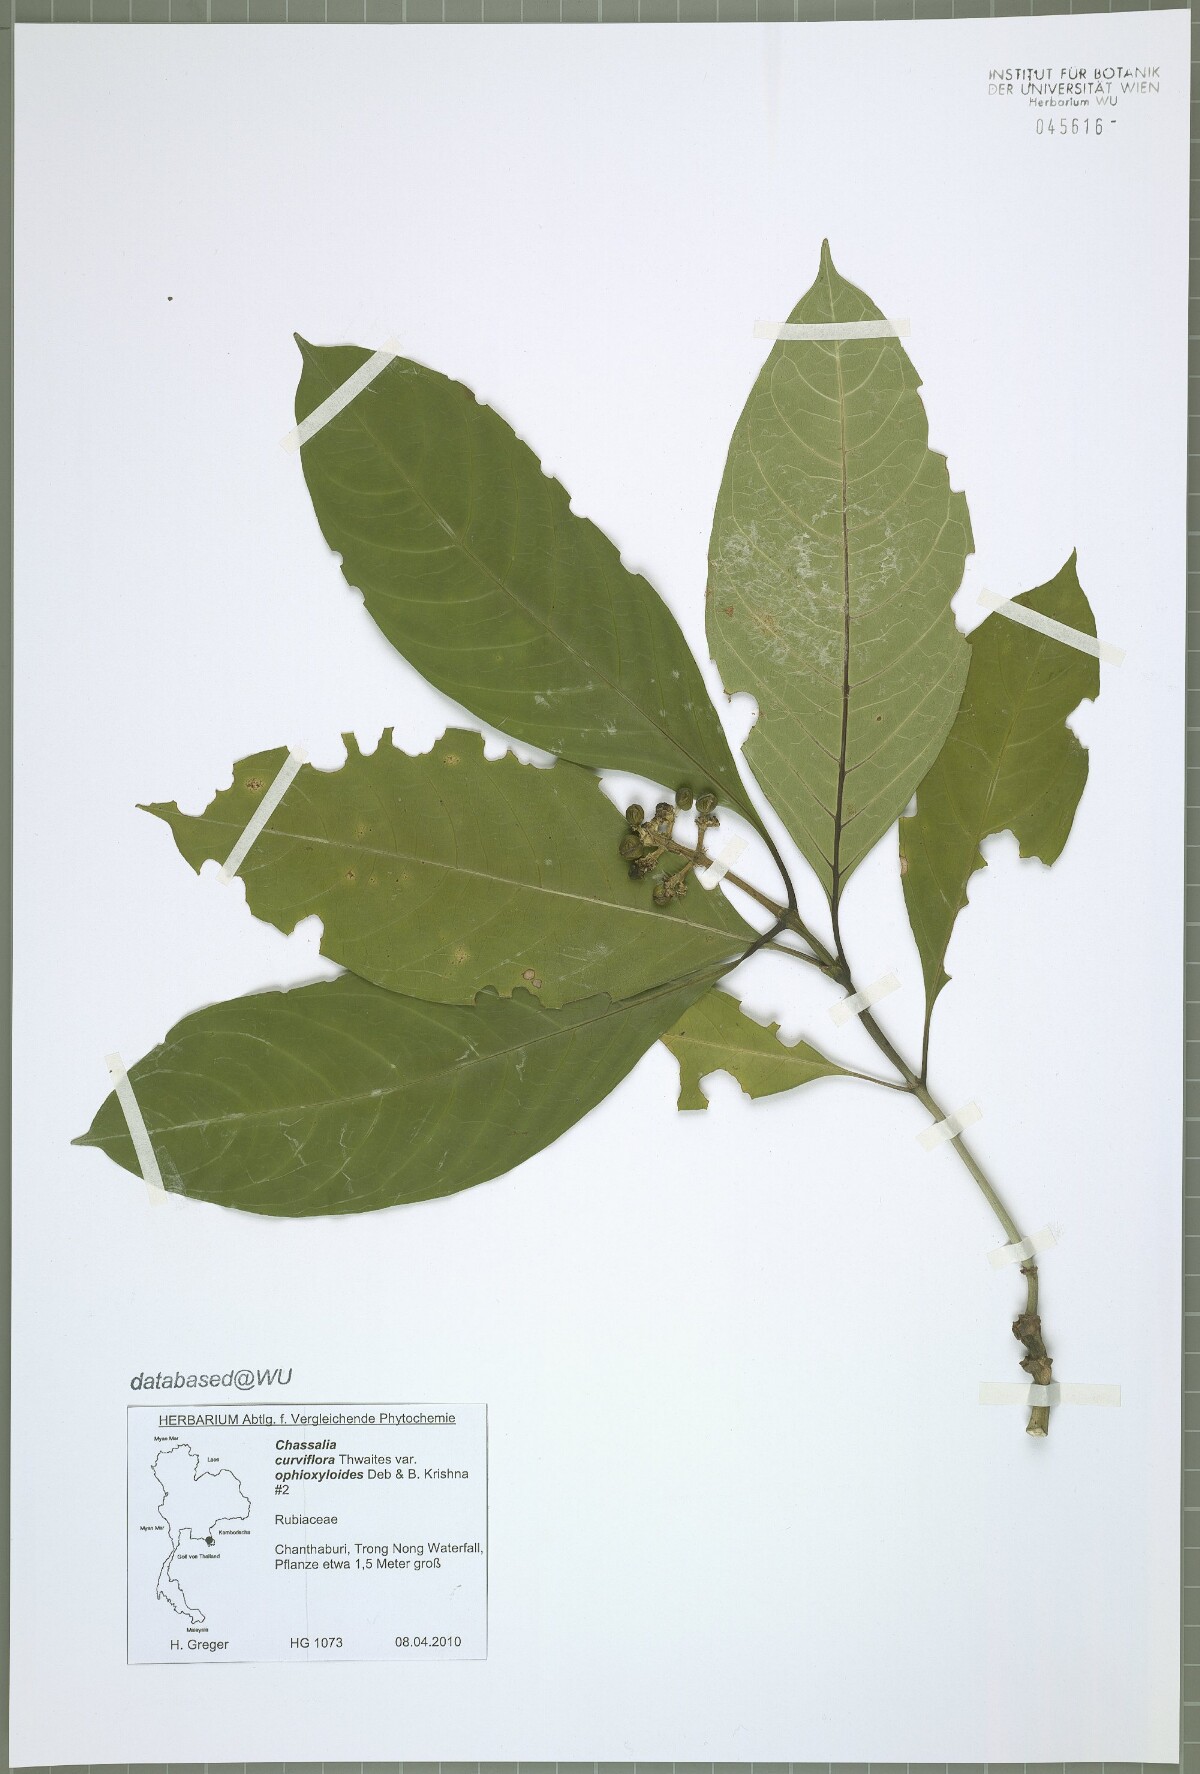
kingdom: Plantae
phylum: Tracheophyta
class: Magnoliopsida
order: Gentianales
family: Rubiaceae
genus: Chassalia
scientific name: Chassalia curviflora
